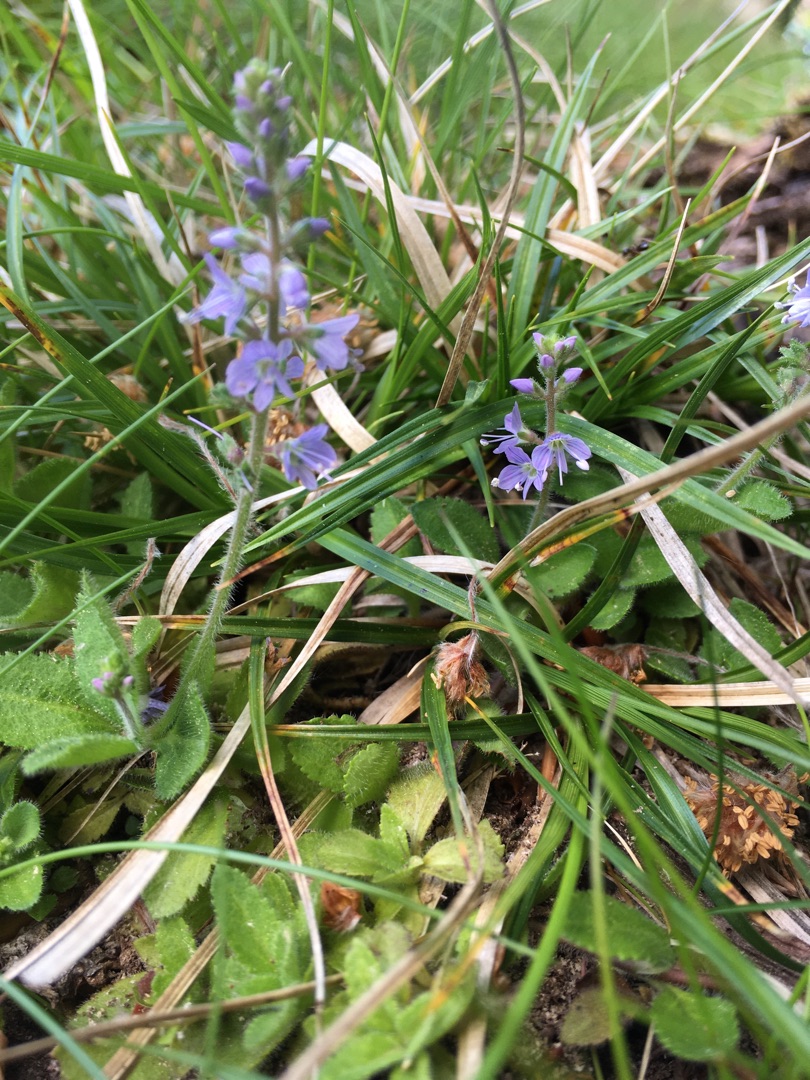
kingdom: Plantae
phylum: Tracheophyta
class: Magnoliopsida
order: Lamiales
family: Plantaginaceae
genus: Veronica
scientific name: Veronica officinalis
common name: Læge-ærenpris
